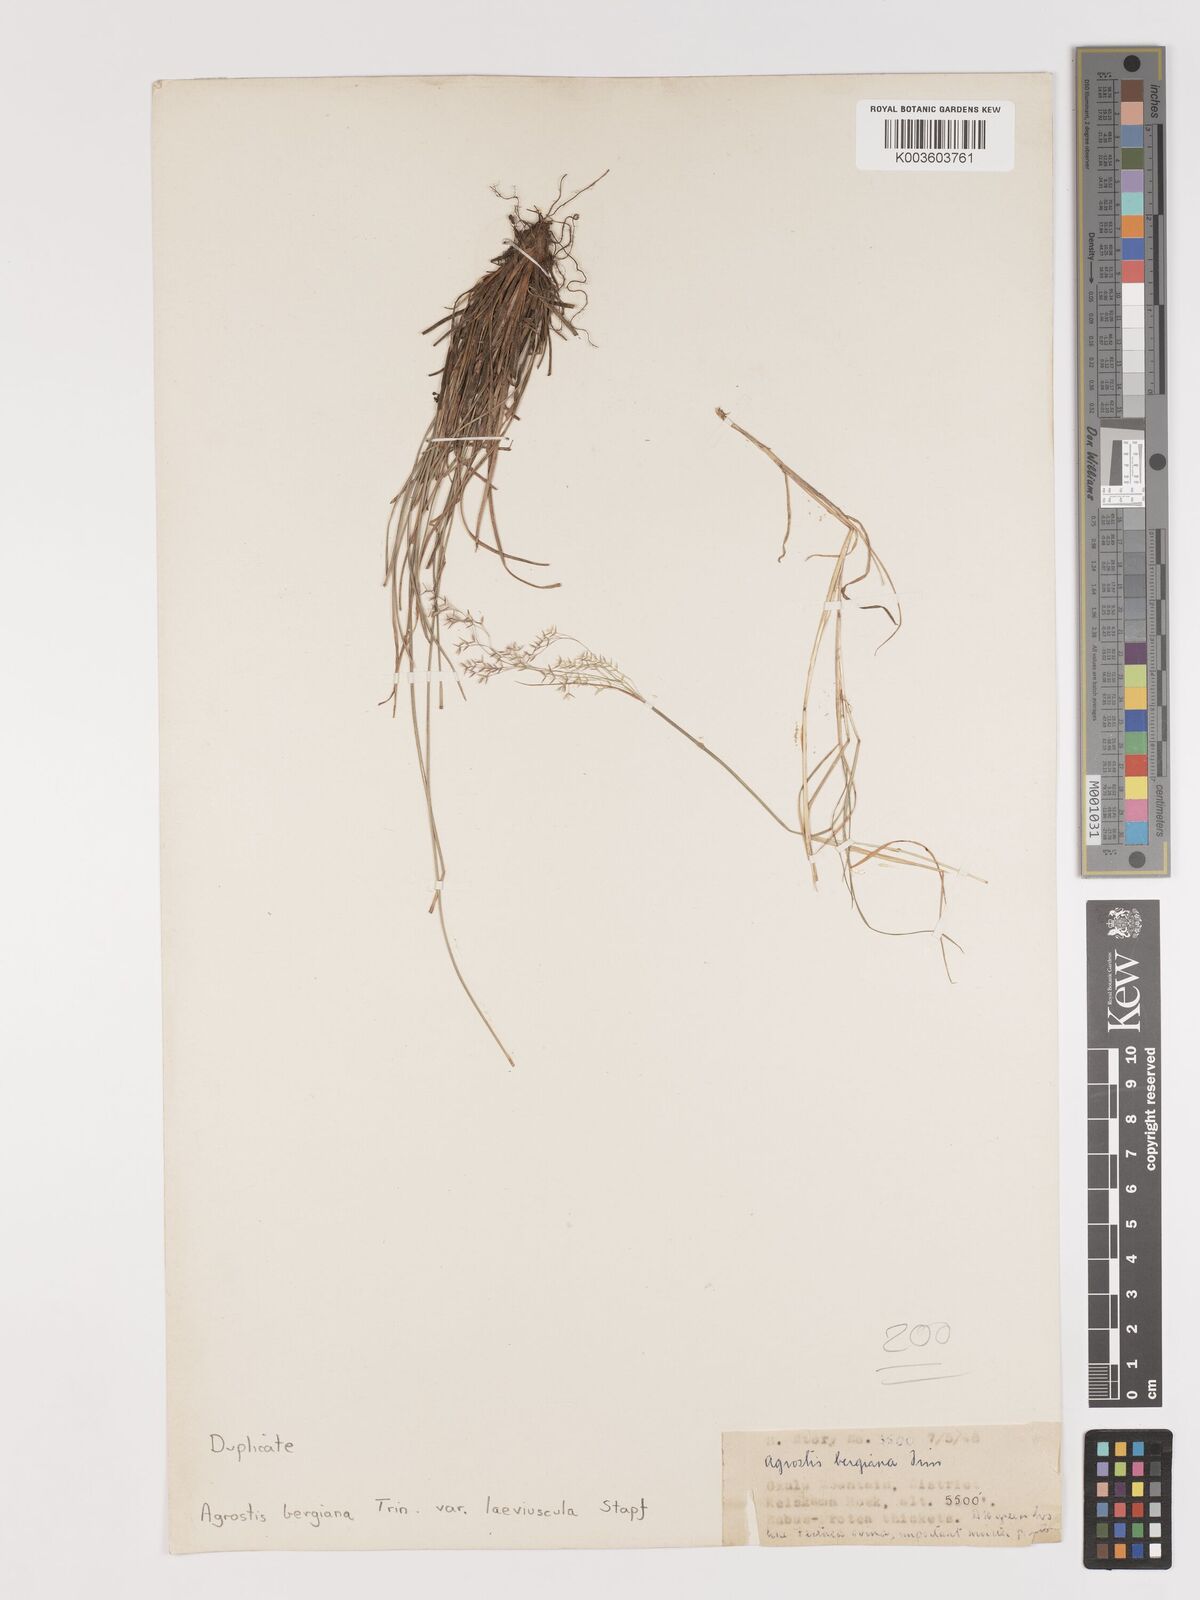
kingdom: Plantae
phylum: Tracheophyta
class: Liliopsida
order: Poales
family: Poaceae
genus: Agrostis
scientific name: Agrostis bergiana
